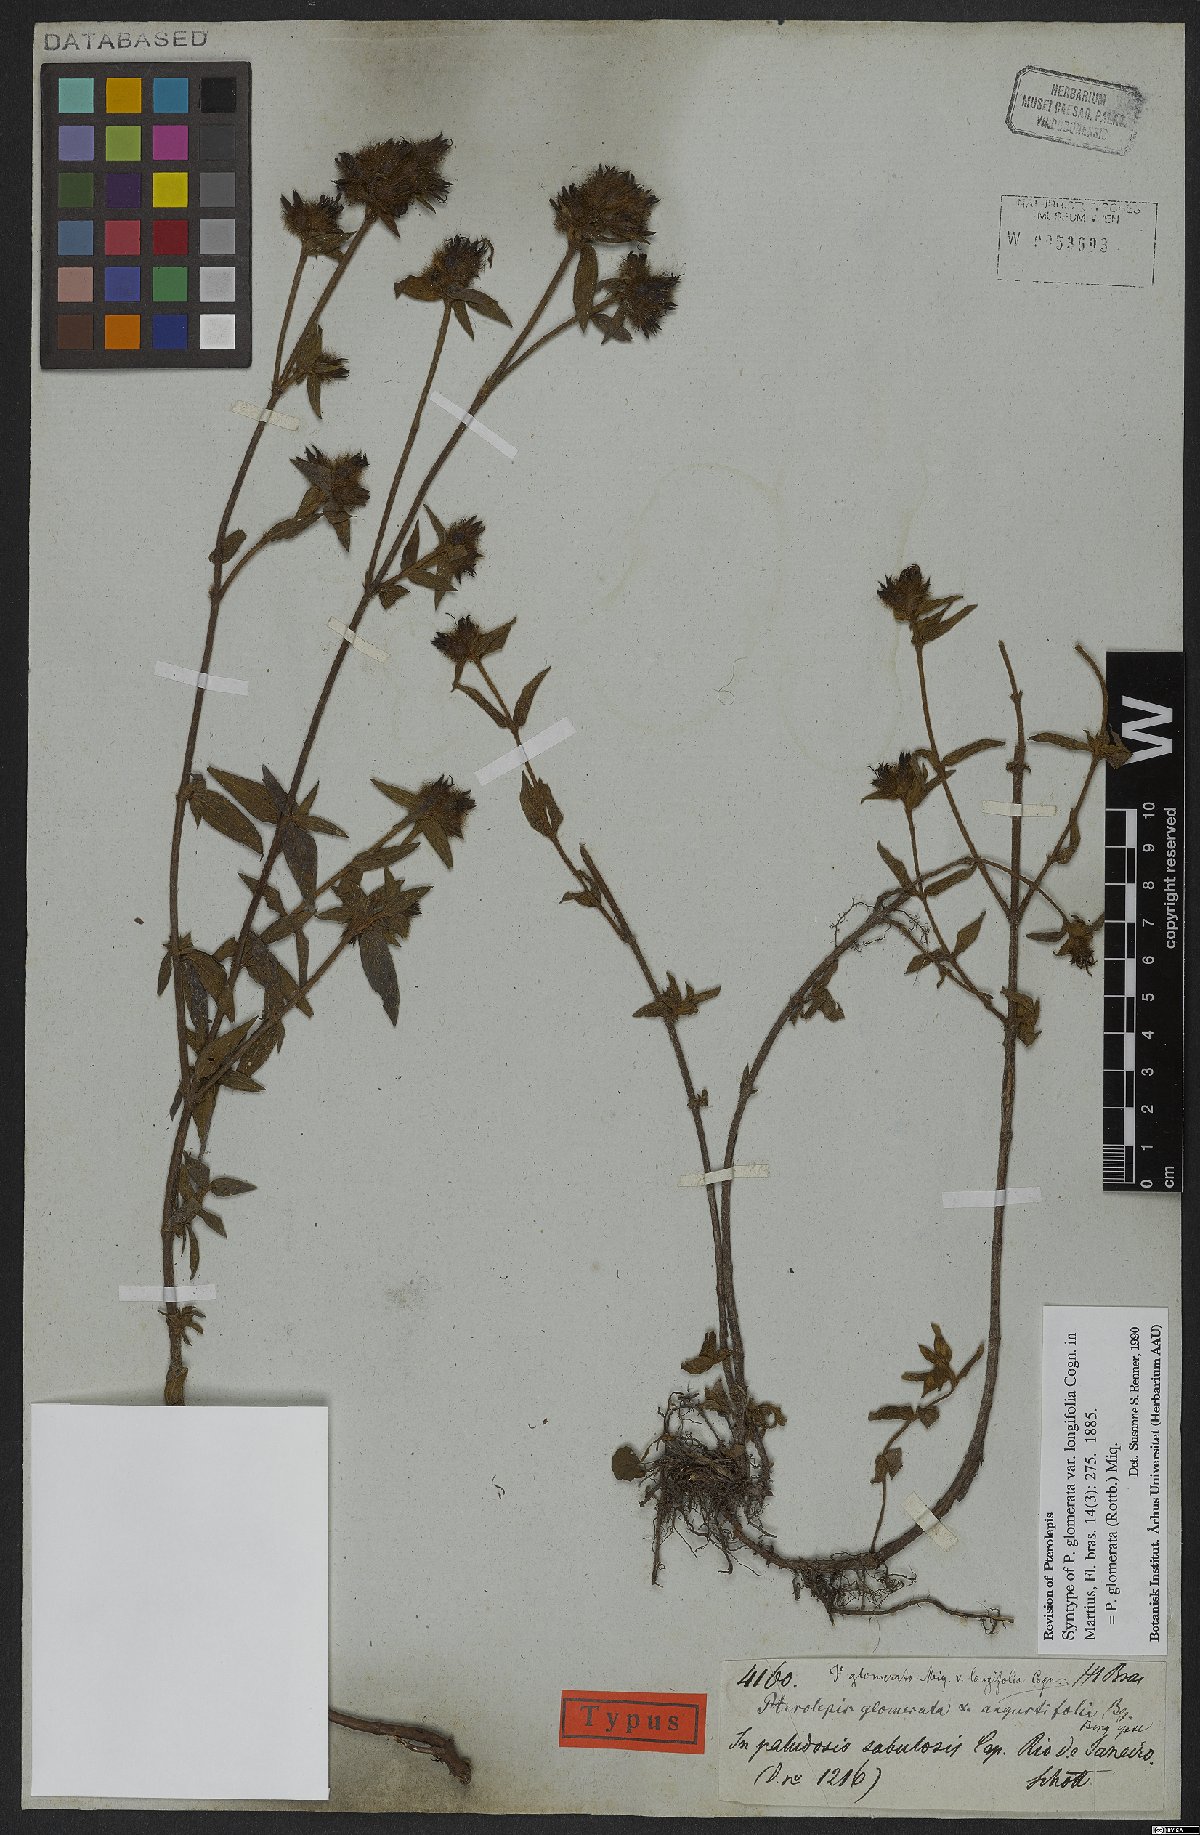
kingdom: Plantae
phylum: Tracheophyta
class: Magnoliopsida
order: Myrtales
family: Melastomataceae
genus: Pterolepis
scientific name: Pterolepis glomerata
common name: False meadowbeauty
